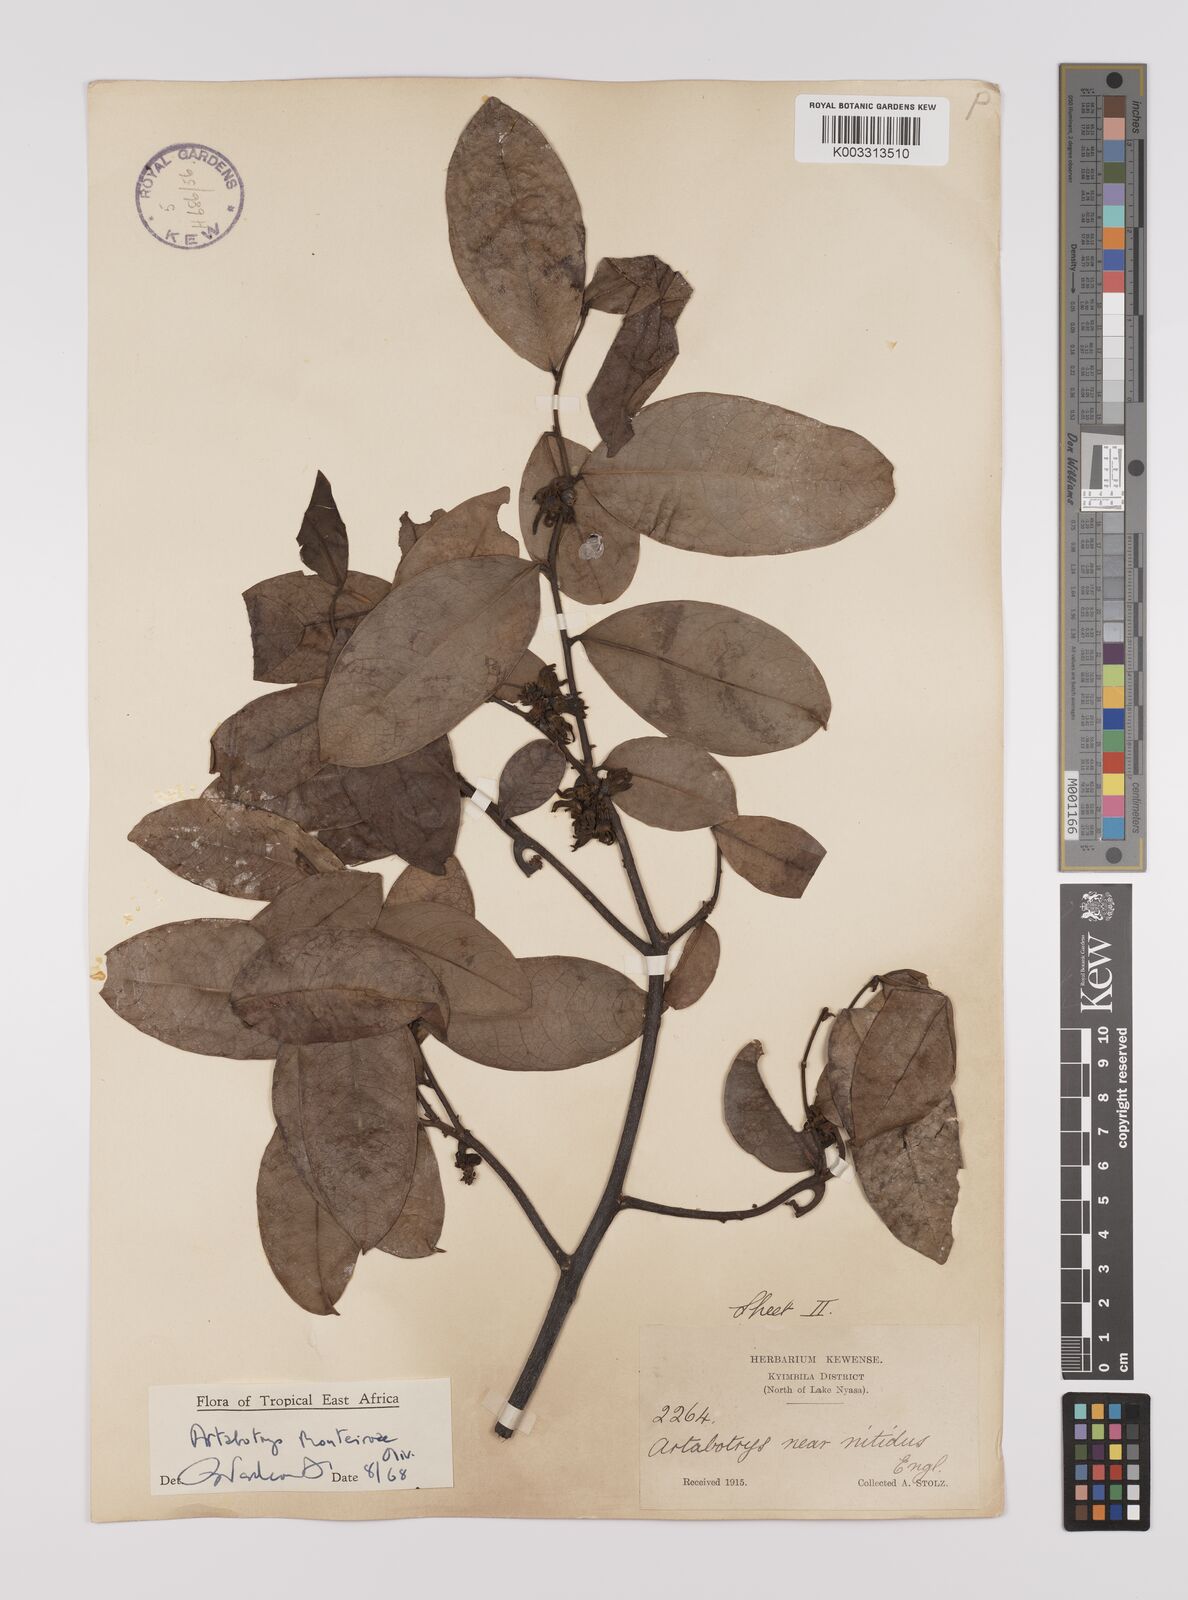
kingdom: Plantae
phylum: Tracheophyta
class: Magnoliopsida
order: Magnoliales
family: Annonaceae
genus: Artabotrys
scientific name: Artabotrys monteiroae
